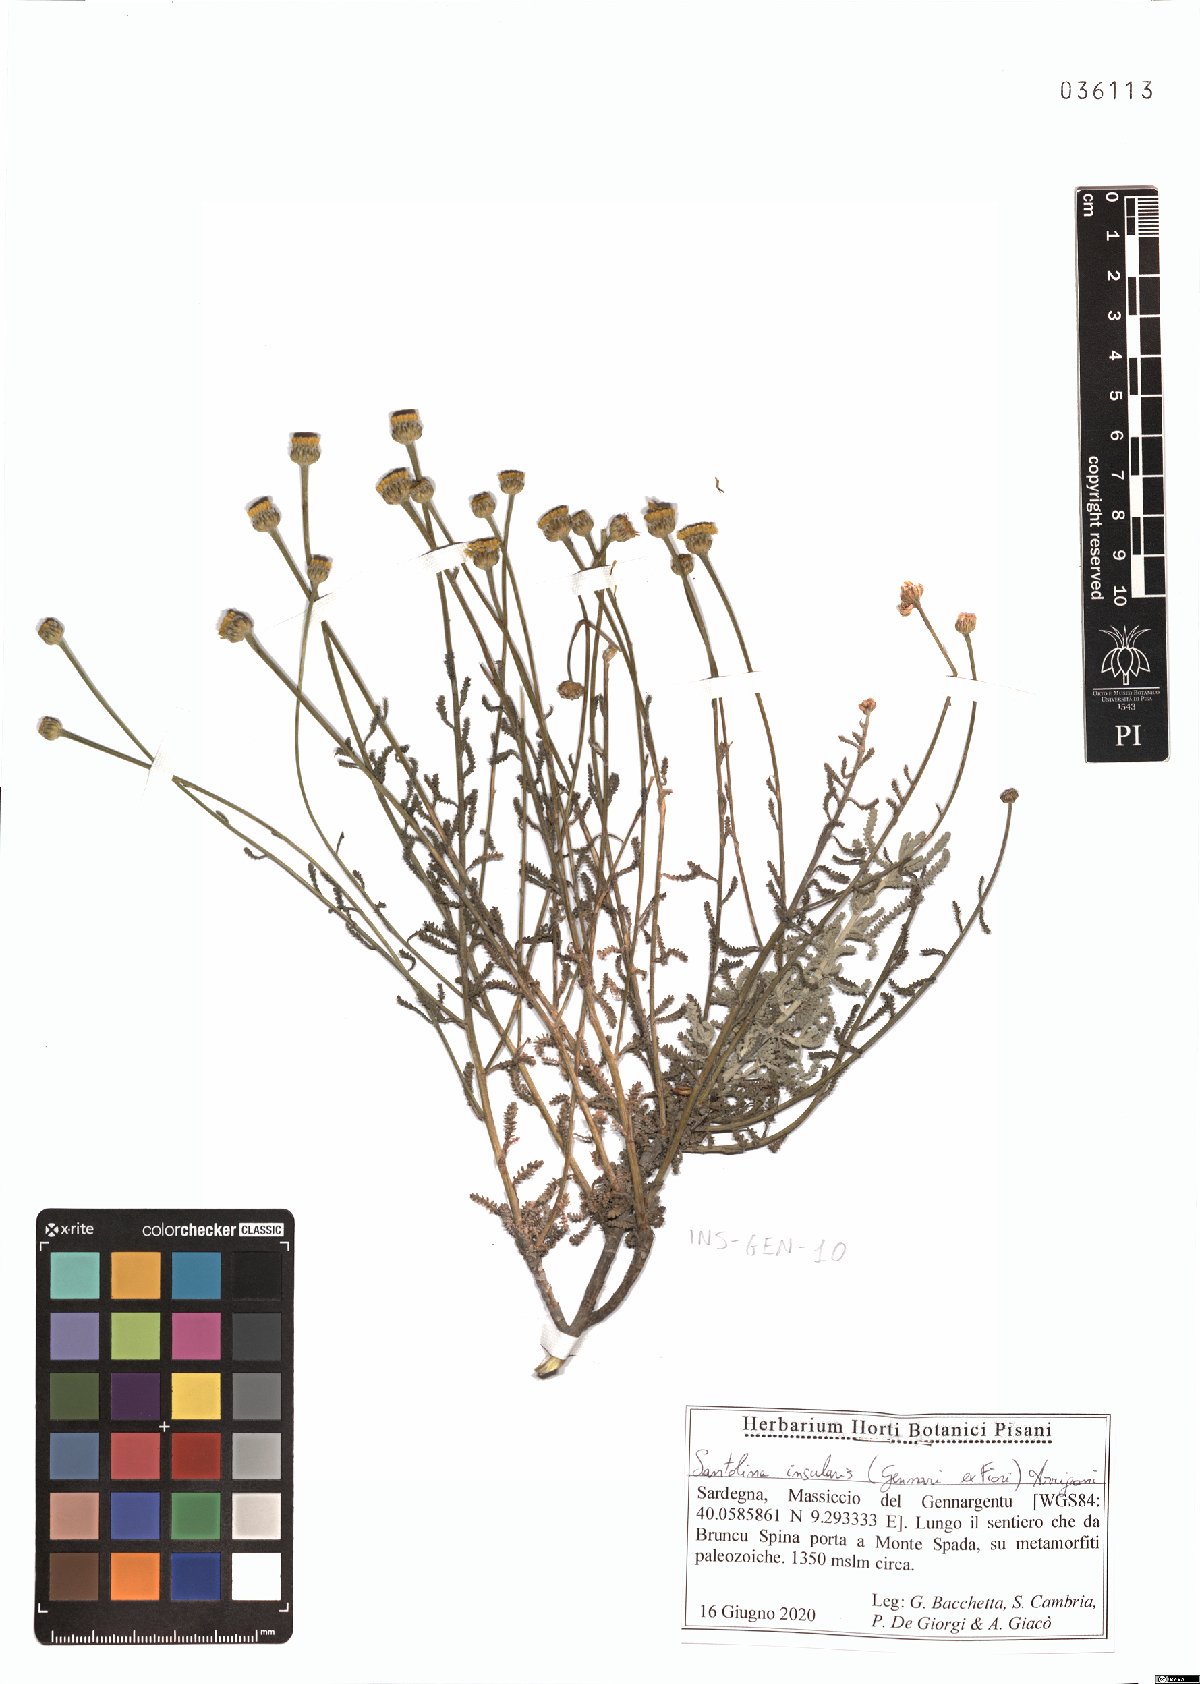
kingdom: Plantae
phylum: Tracheophyta
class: Magnoliopsida
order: Asterales
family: Asteraceae
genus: Santolina
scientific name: Santolina insularis
